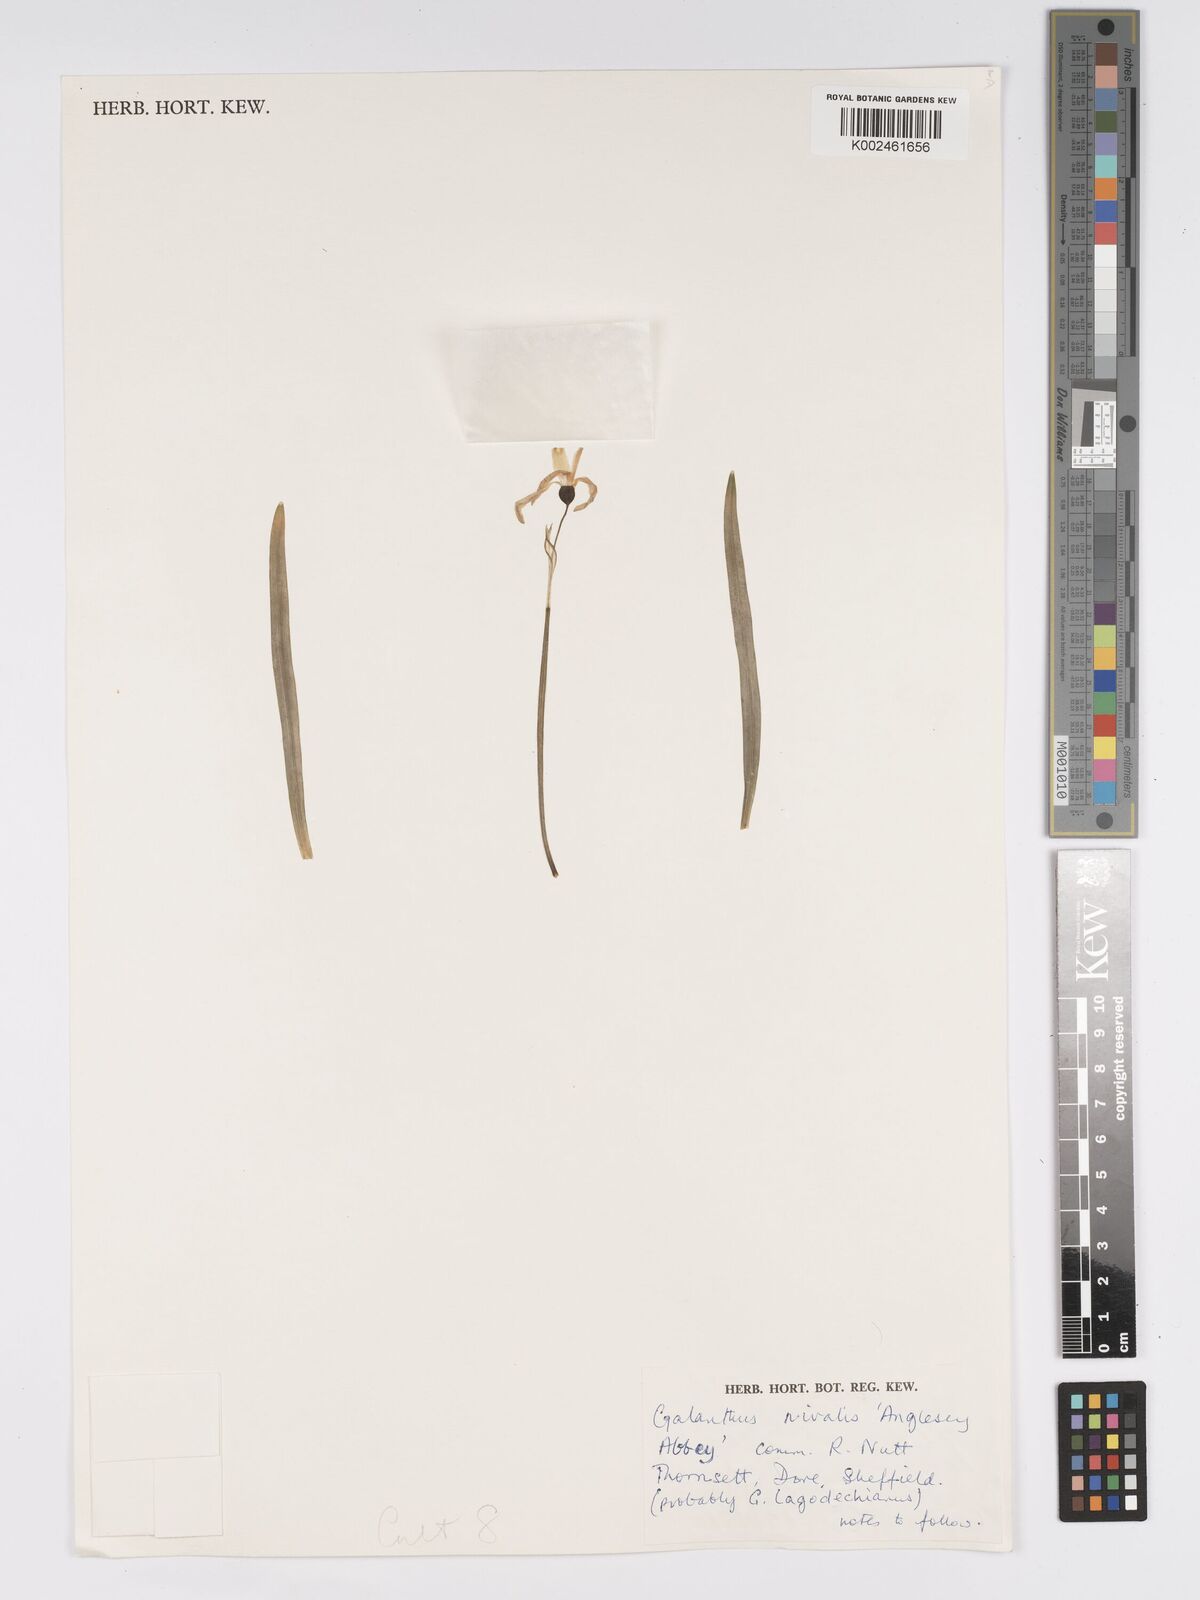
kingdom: Plantae
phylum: Tracheophyta
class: Liliopsida
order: Asparagales
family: Amaryllidaceae
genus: Galanthus
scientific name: Galanthus
